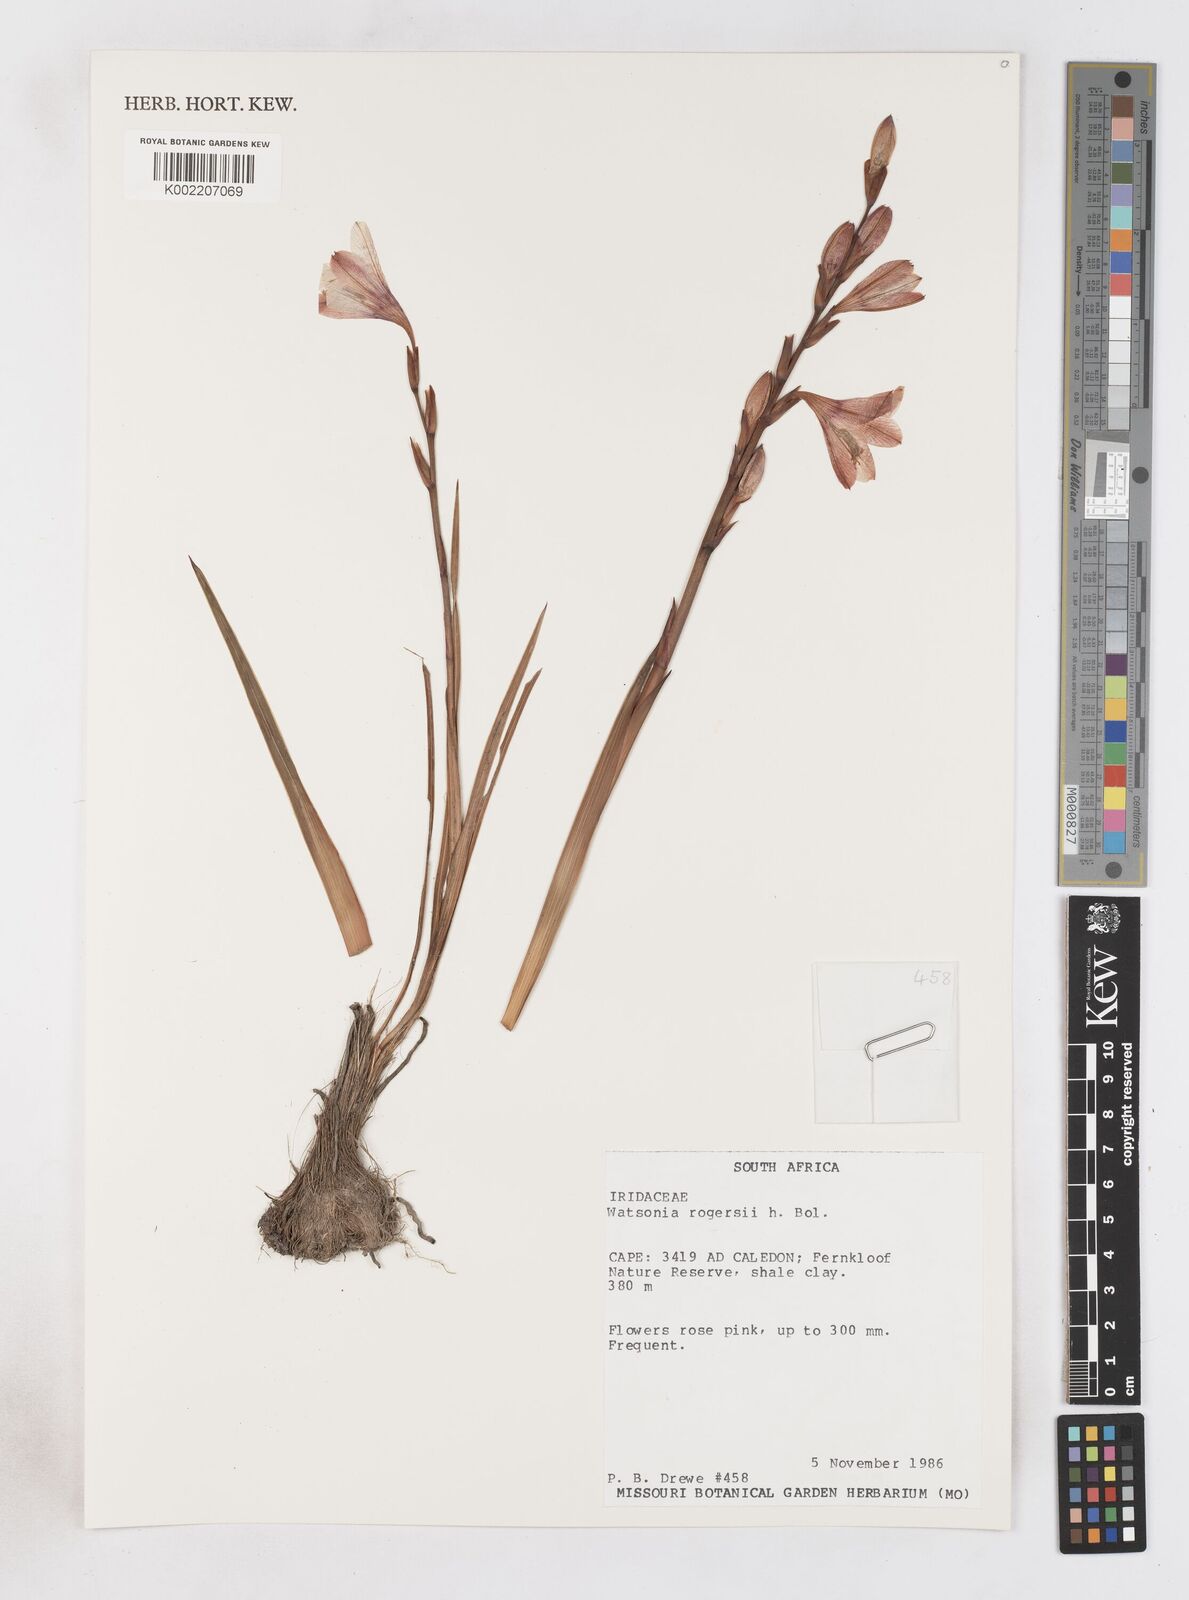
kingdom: Plantae
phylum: Tracheophyta
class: Liliopsida
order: Asparagales
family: Iridaceae
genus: Watsonia
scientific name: Watsonia rogersii
